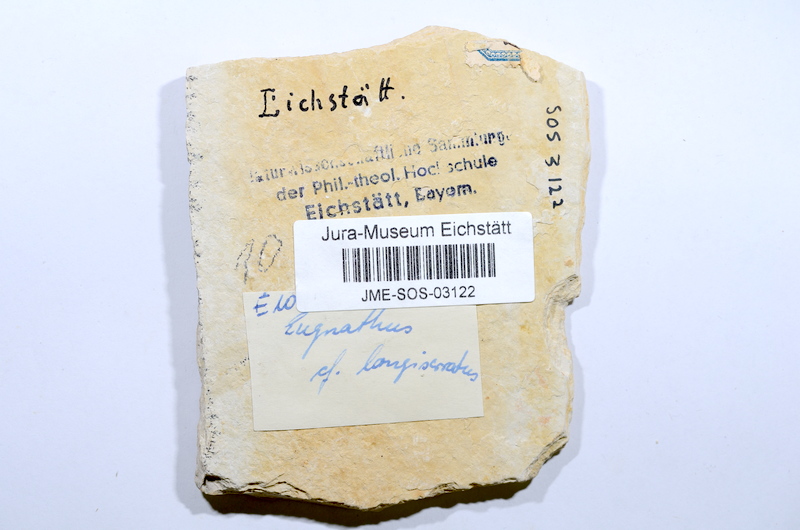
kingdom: Animalia
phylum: Chordata
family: Ophiopsiellidae
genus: Furo
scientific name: Furo longiserratus
